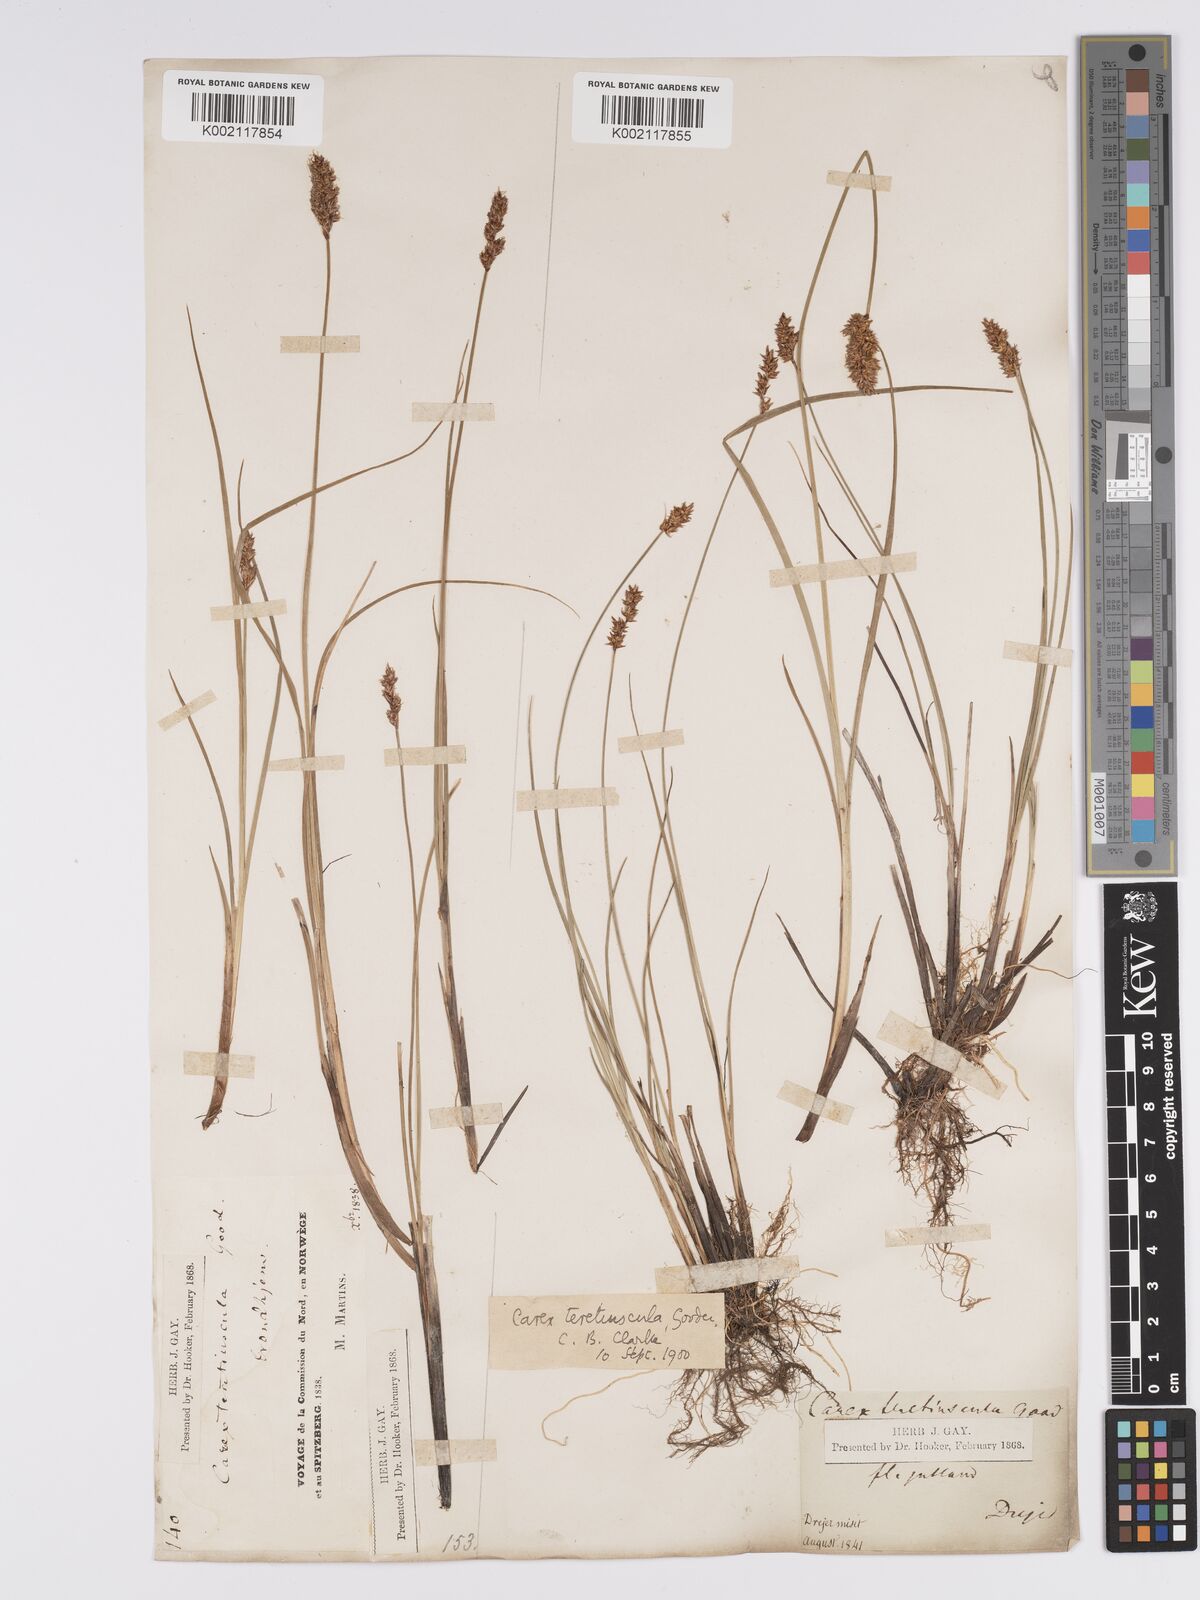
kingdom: Plantae
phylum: Tracheophyta
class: Liliopsida
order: Poales
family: Cyperaceae
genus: Carex
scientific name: Carex diandra
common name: Lesser tussock-sedge
